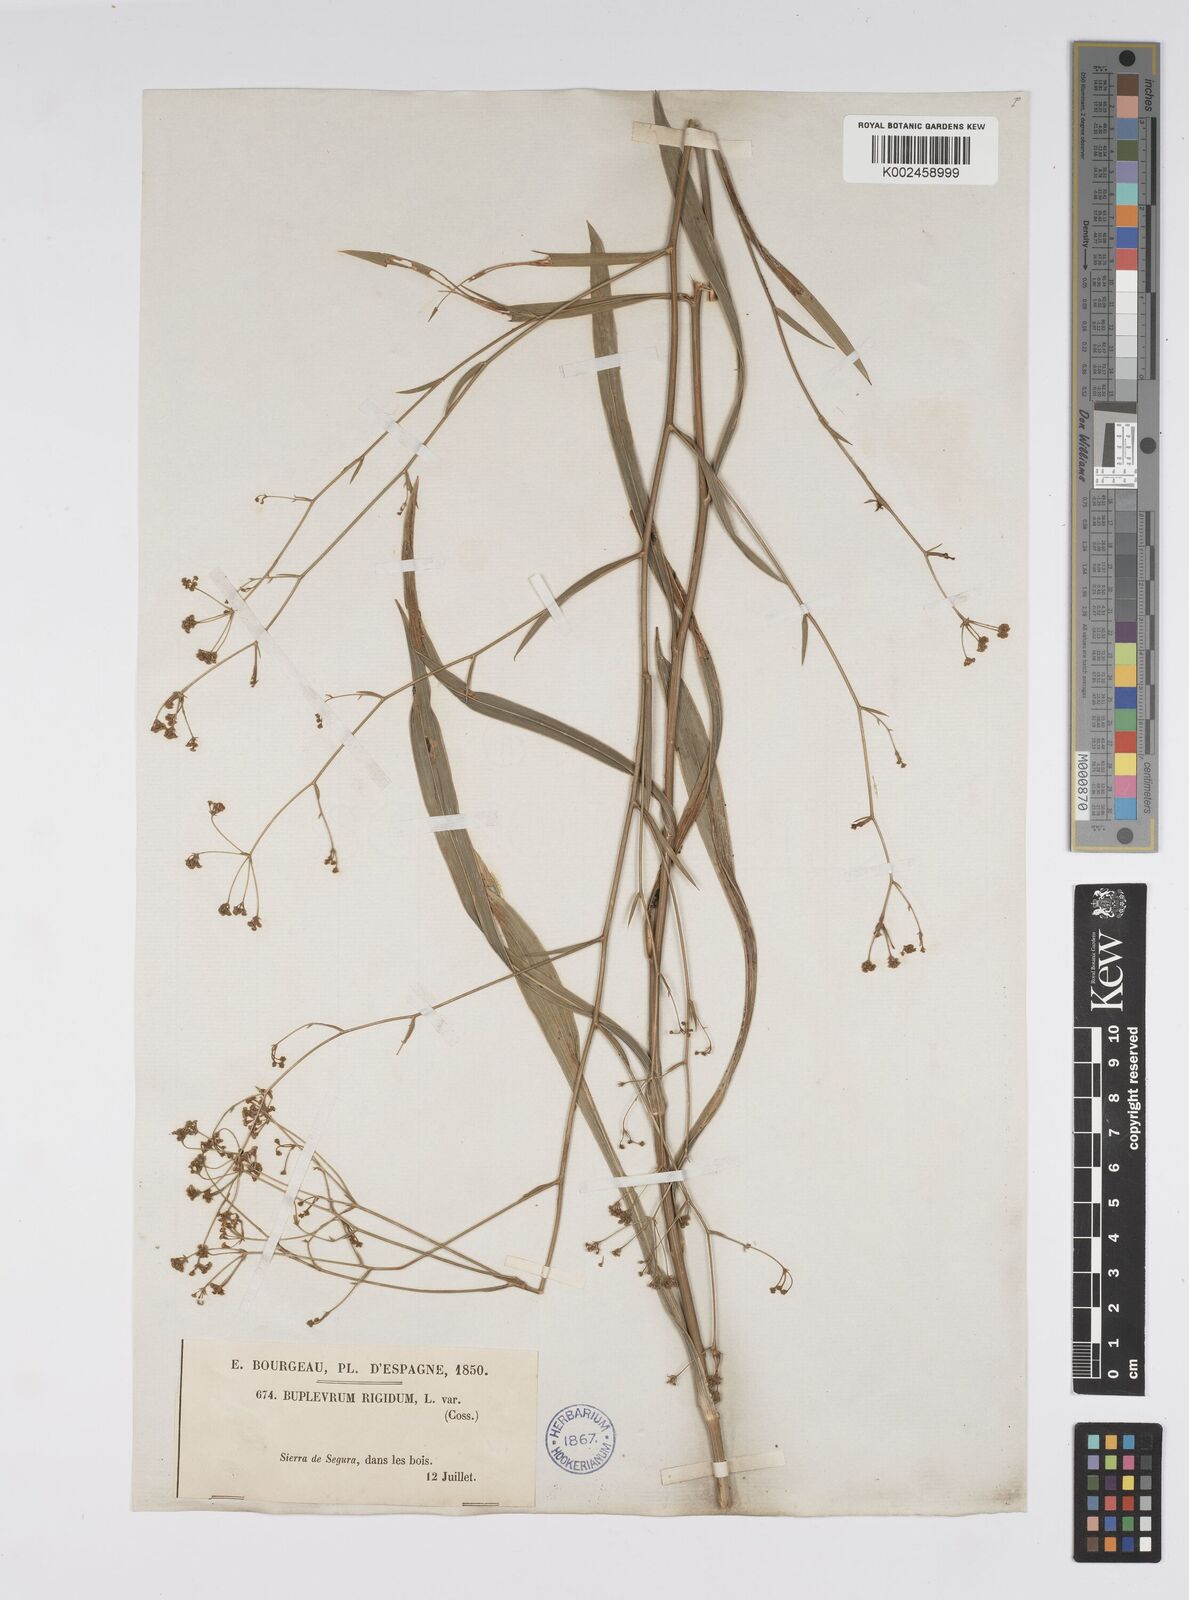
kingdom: Plantae
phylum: Tracheophyta
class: Magnoliopsida
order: Apiales
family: Apiaceae
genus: Bupleurum
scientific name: Bupleurum rigidum
